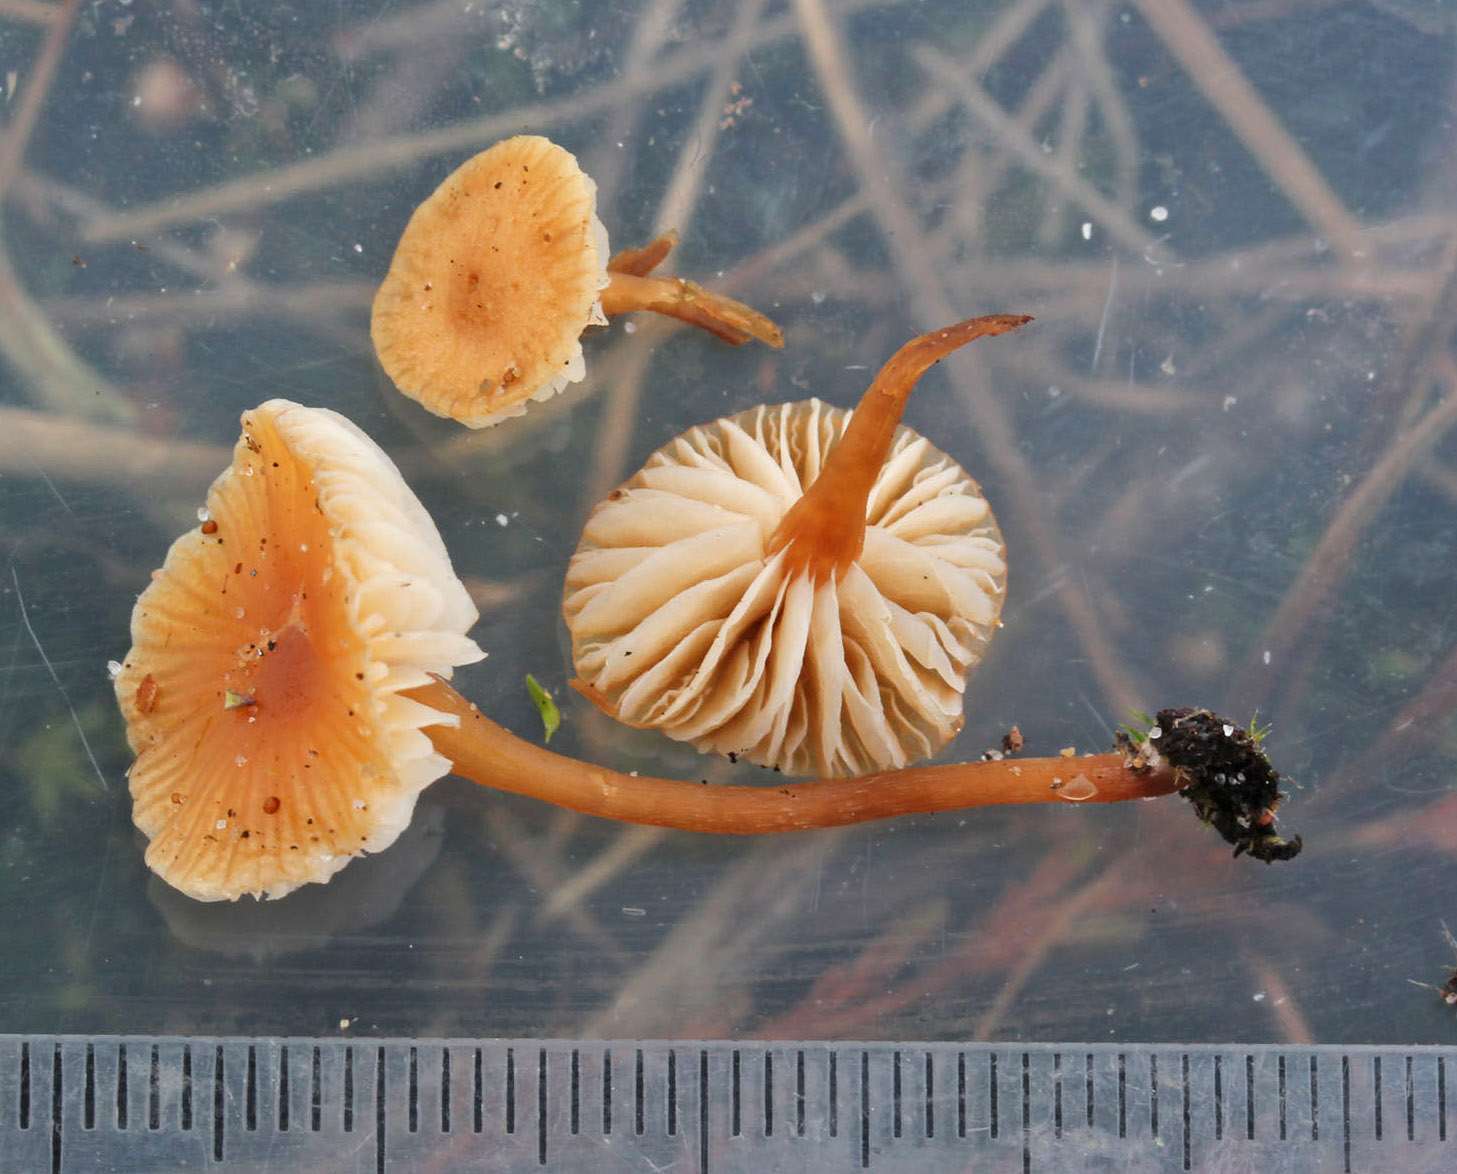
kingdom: Fungi
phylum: Basidiomycota
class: Agaricomycetes
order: Agaricales
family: Strophariaceae
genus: Deconica
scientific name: Deconica
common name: stråhat
